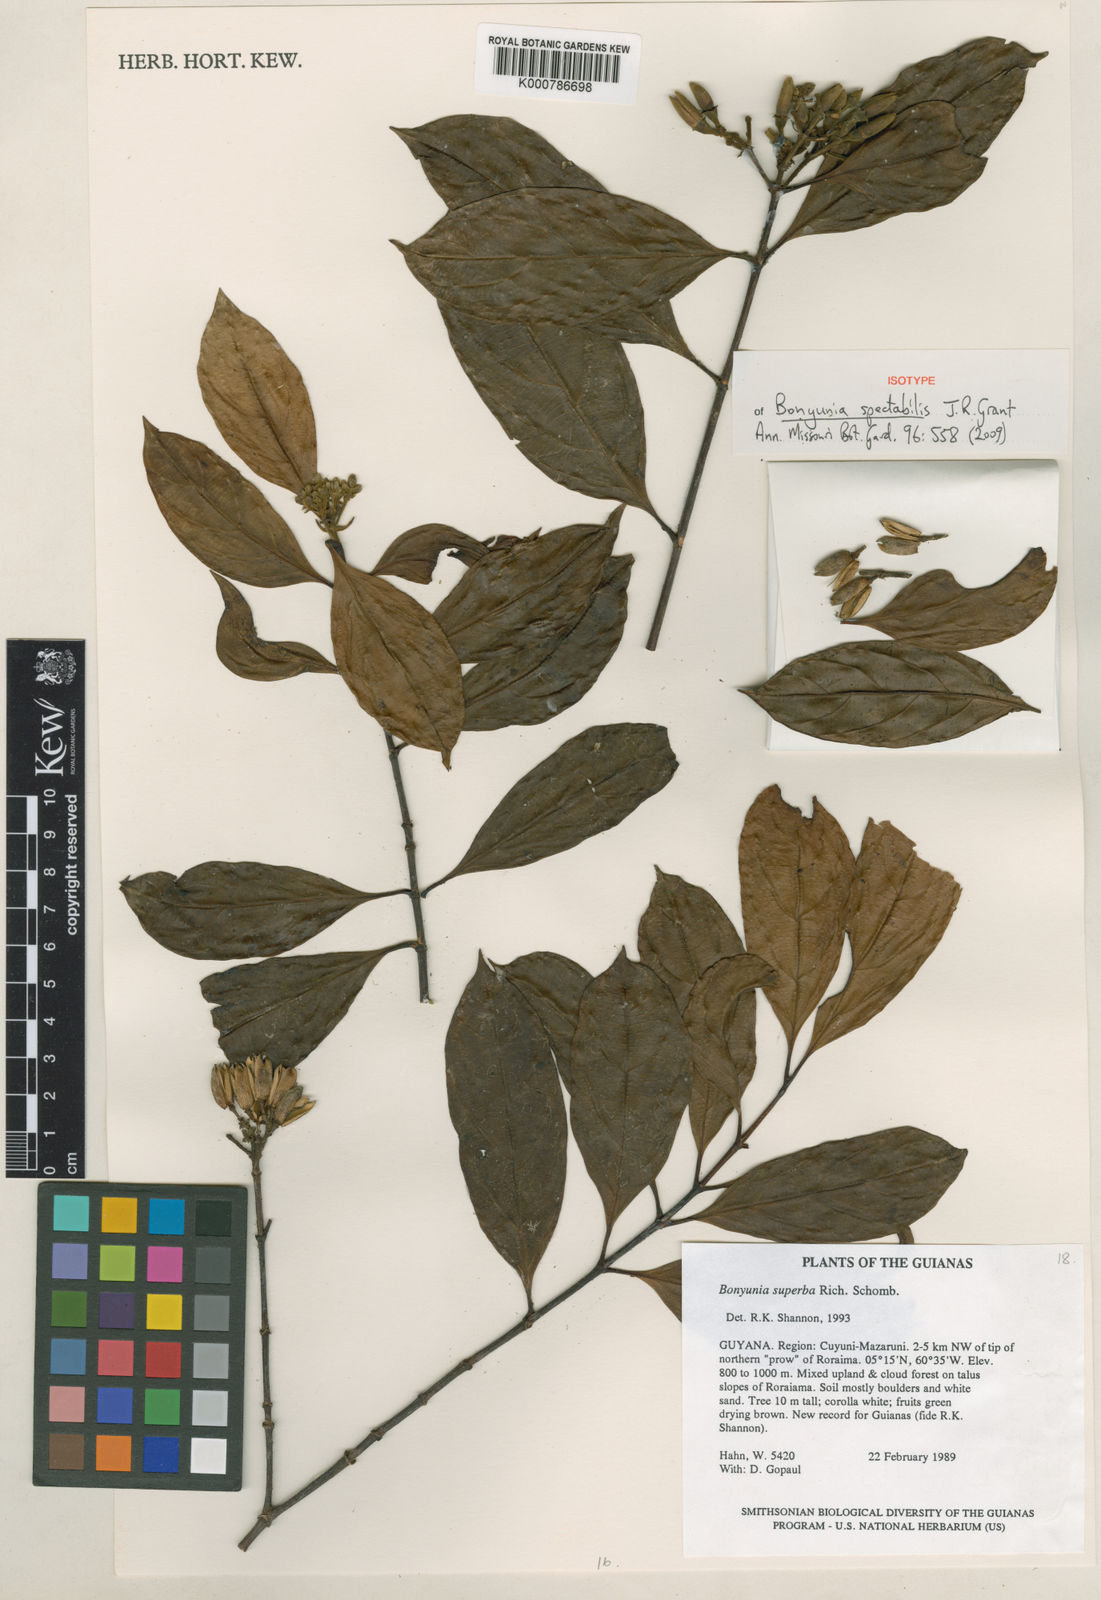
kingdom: Plantae
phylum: Tracheophyta
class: Magnoliopsida
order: Gentianales
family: Loganiaceae
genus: Bonyunia
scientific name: Bonyunia spectabilis
